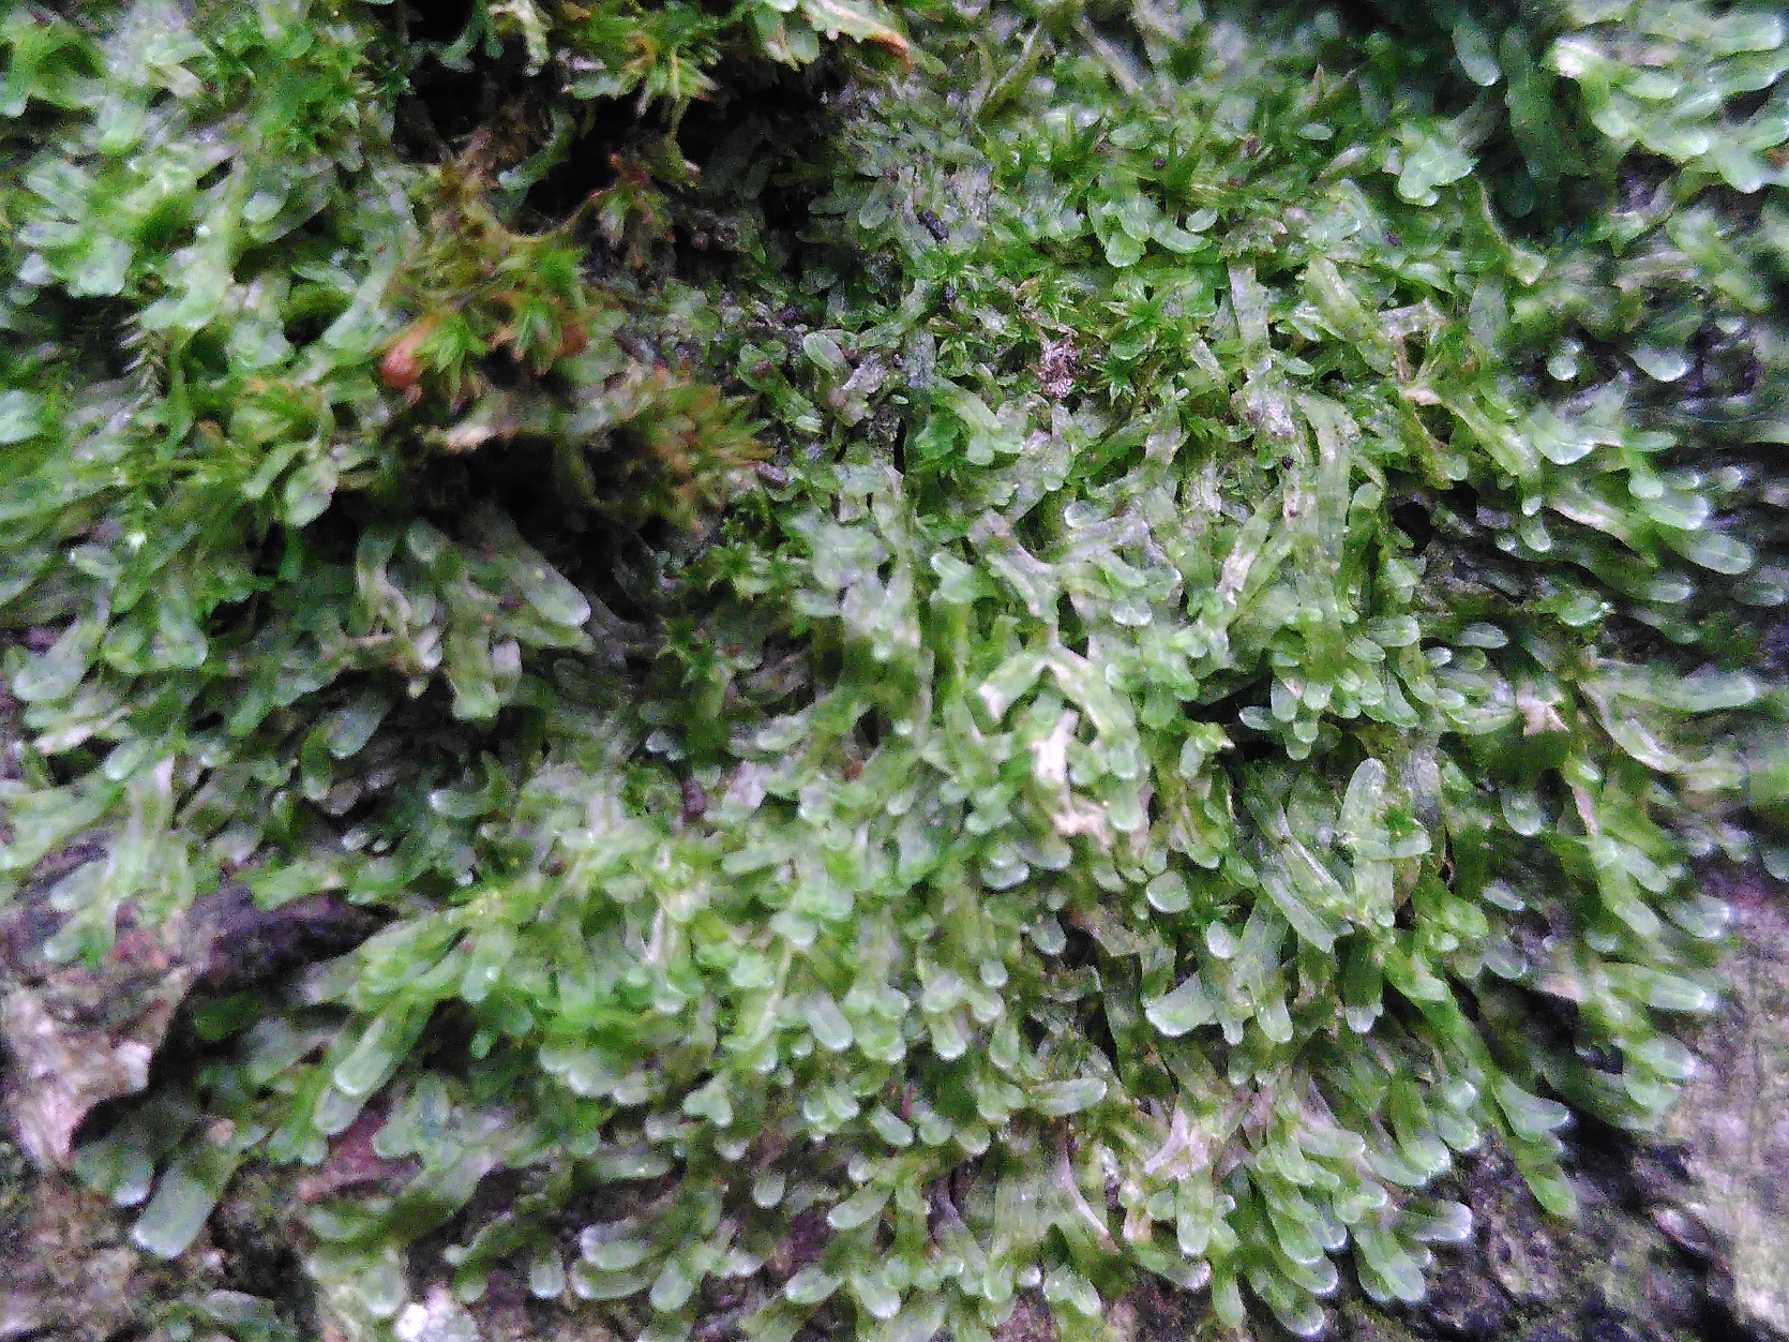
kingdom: Plantae
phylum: Marchantiophyta
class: Jungermanniopsida
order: Metzgeriales
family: Metzgeriaceae
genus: Metzgeria
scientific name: Metzgeria furcata
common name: Almindelig gaffelløv
